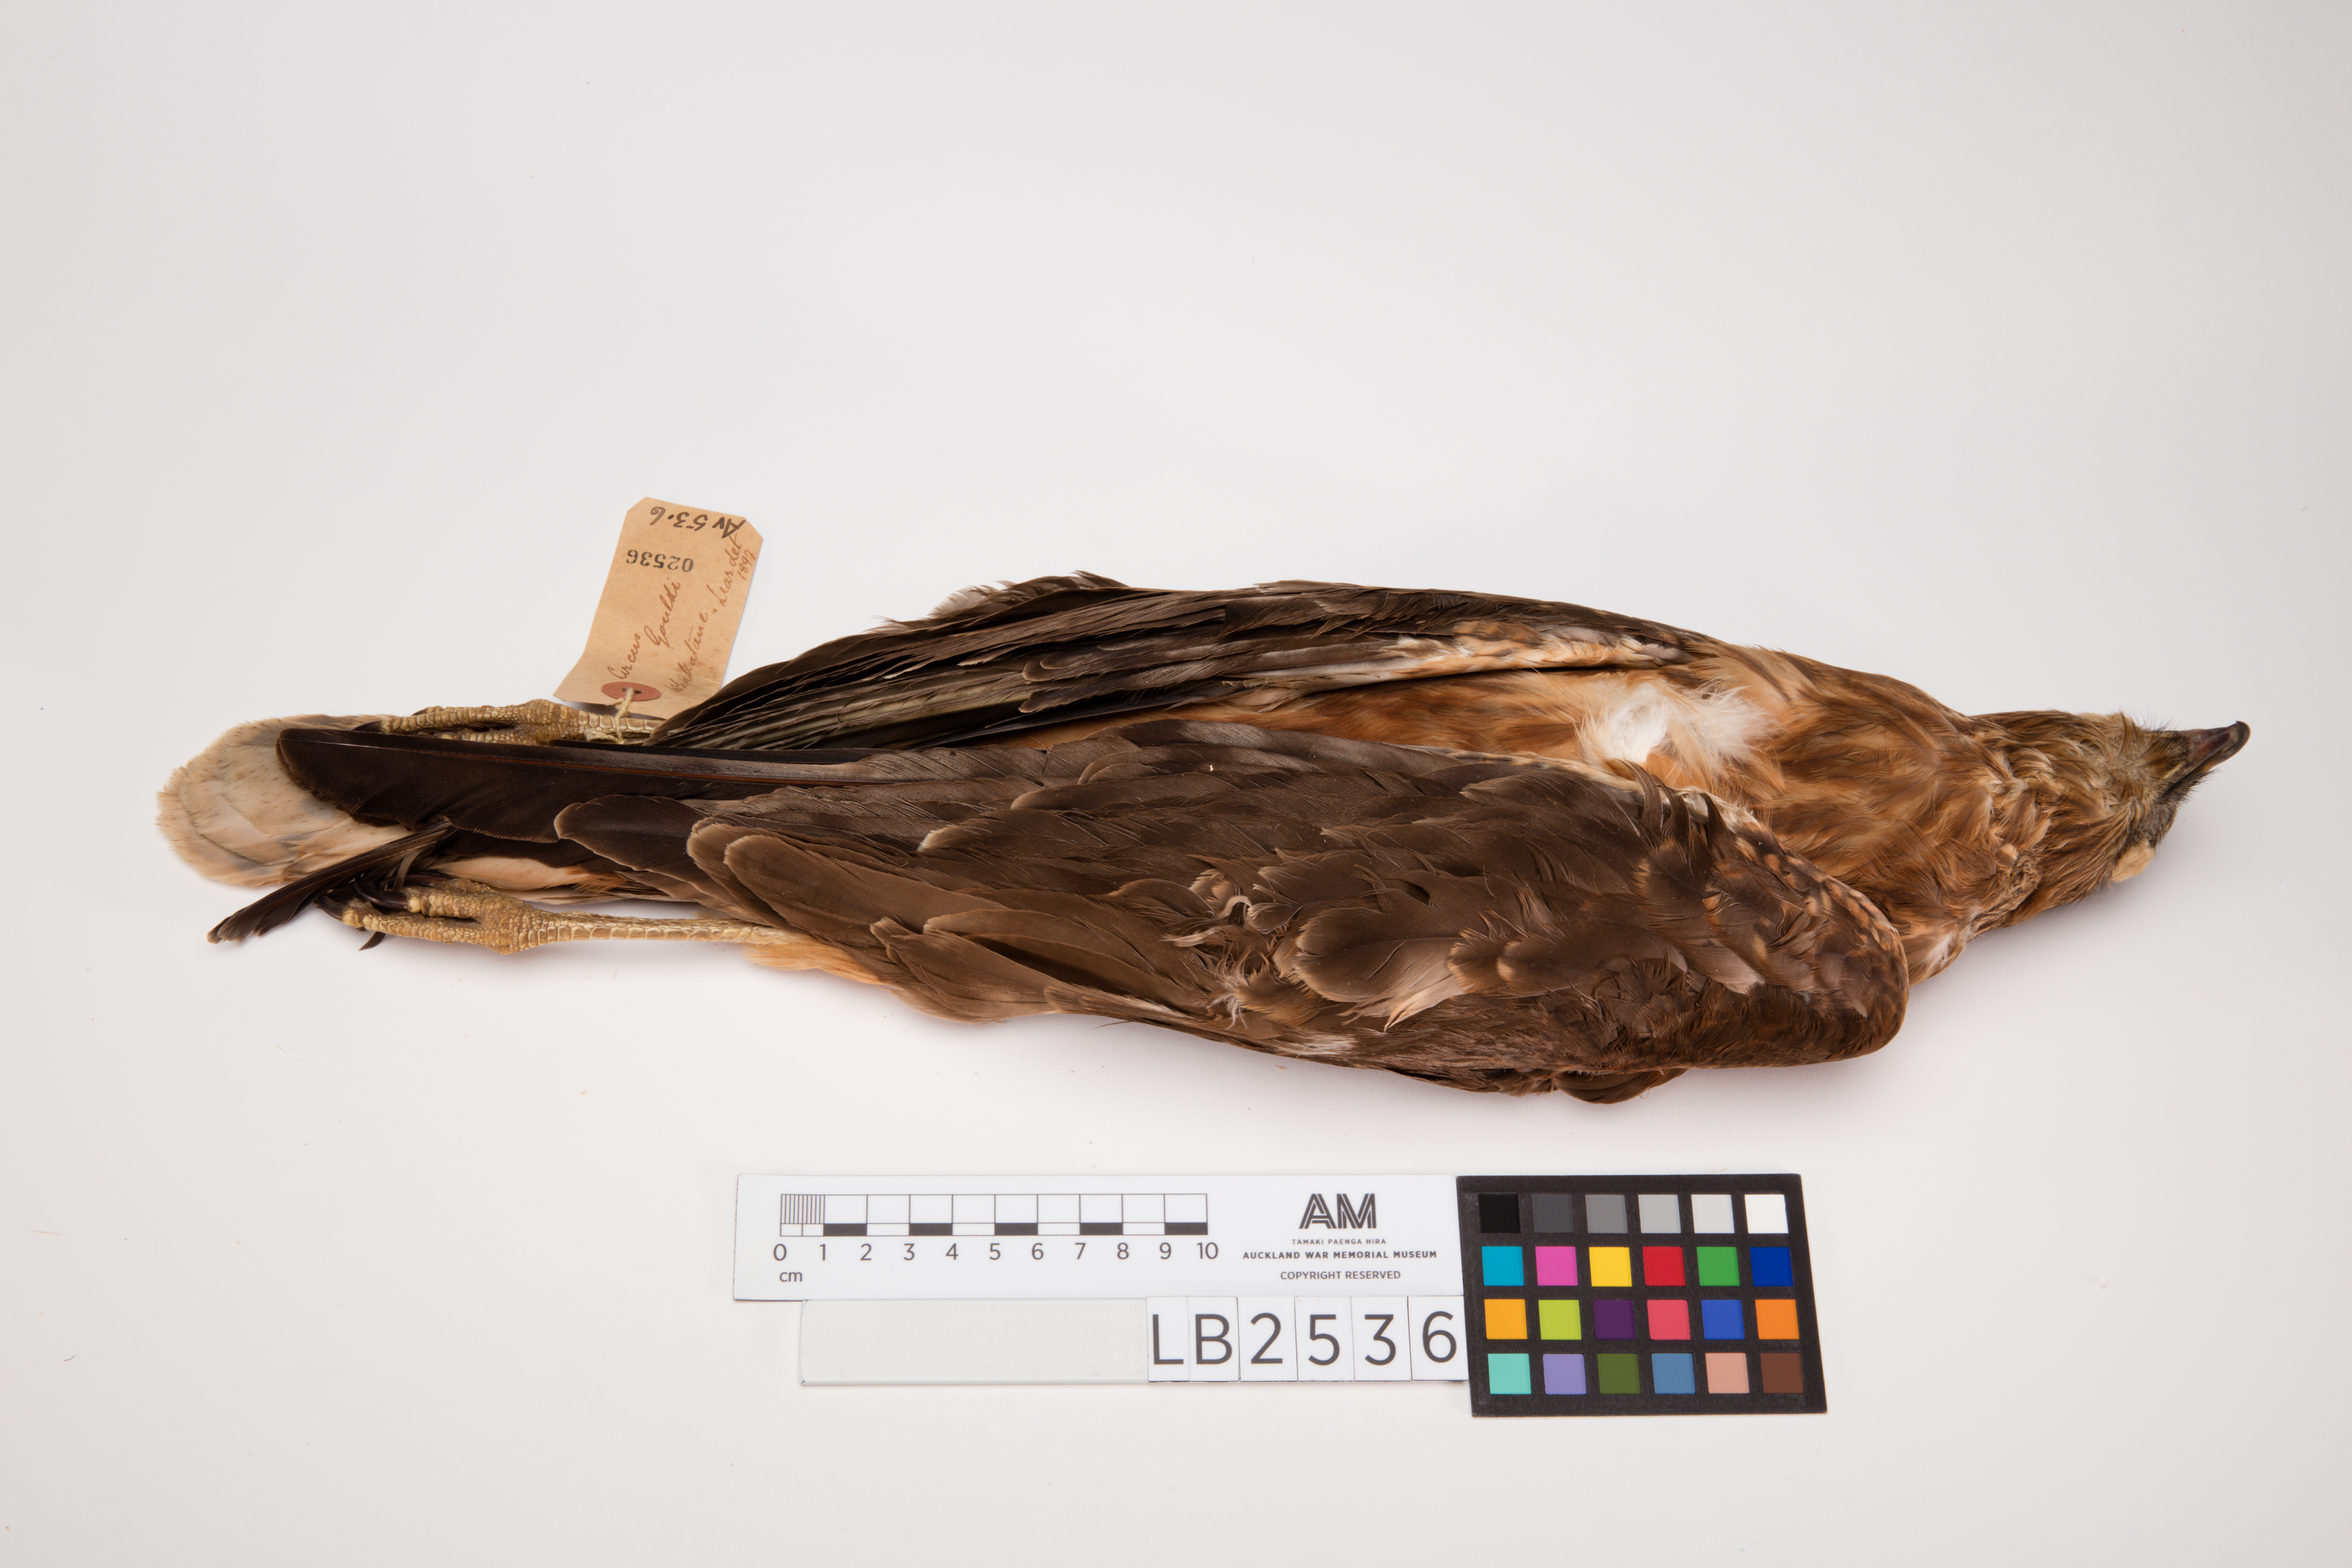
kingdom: Animalia
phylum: Chordata
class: Aves
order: Accipitriformes
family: Accipitridae
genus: Circus
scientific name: Circus approximans
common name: Swamp harrier
